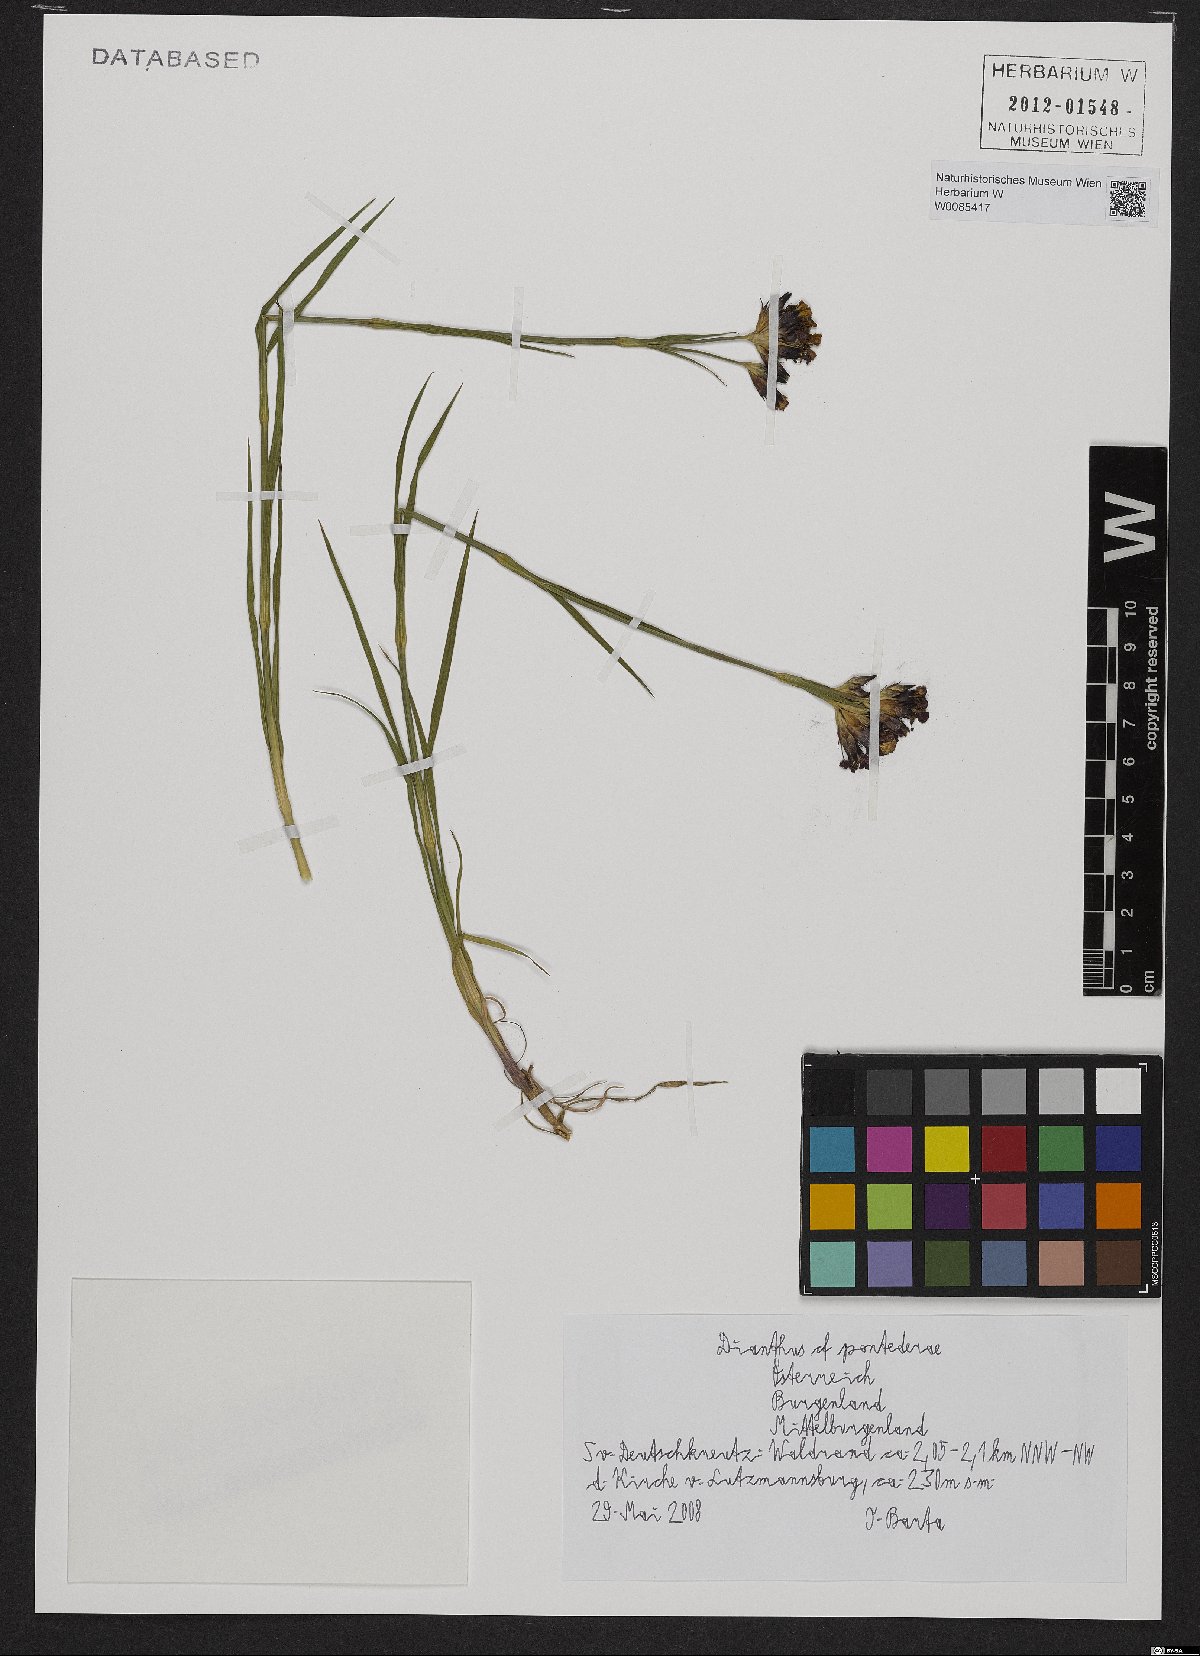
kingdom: Plantae
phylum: Tracheophyta
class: Magnoliopsida
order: Caryophyllales
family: Caryophyllaceae
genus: Dianthus
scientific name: Dianthus pontederae
